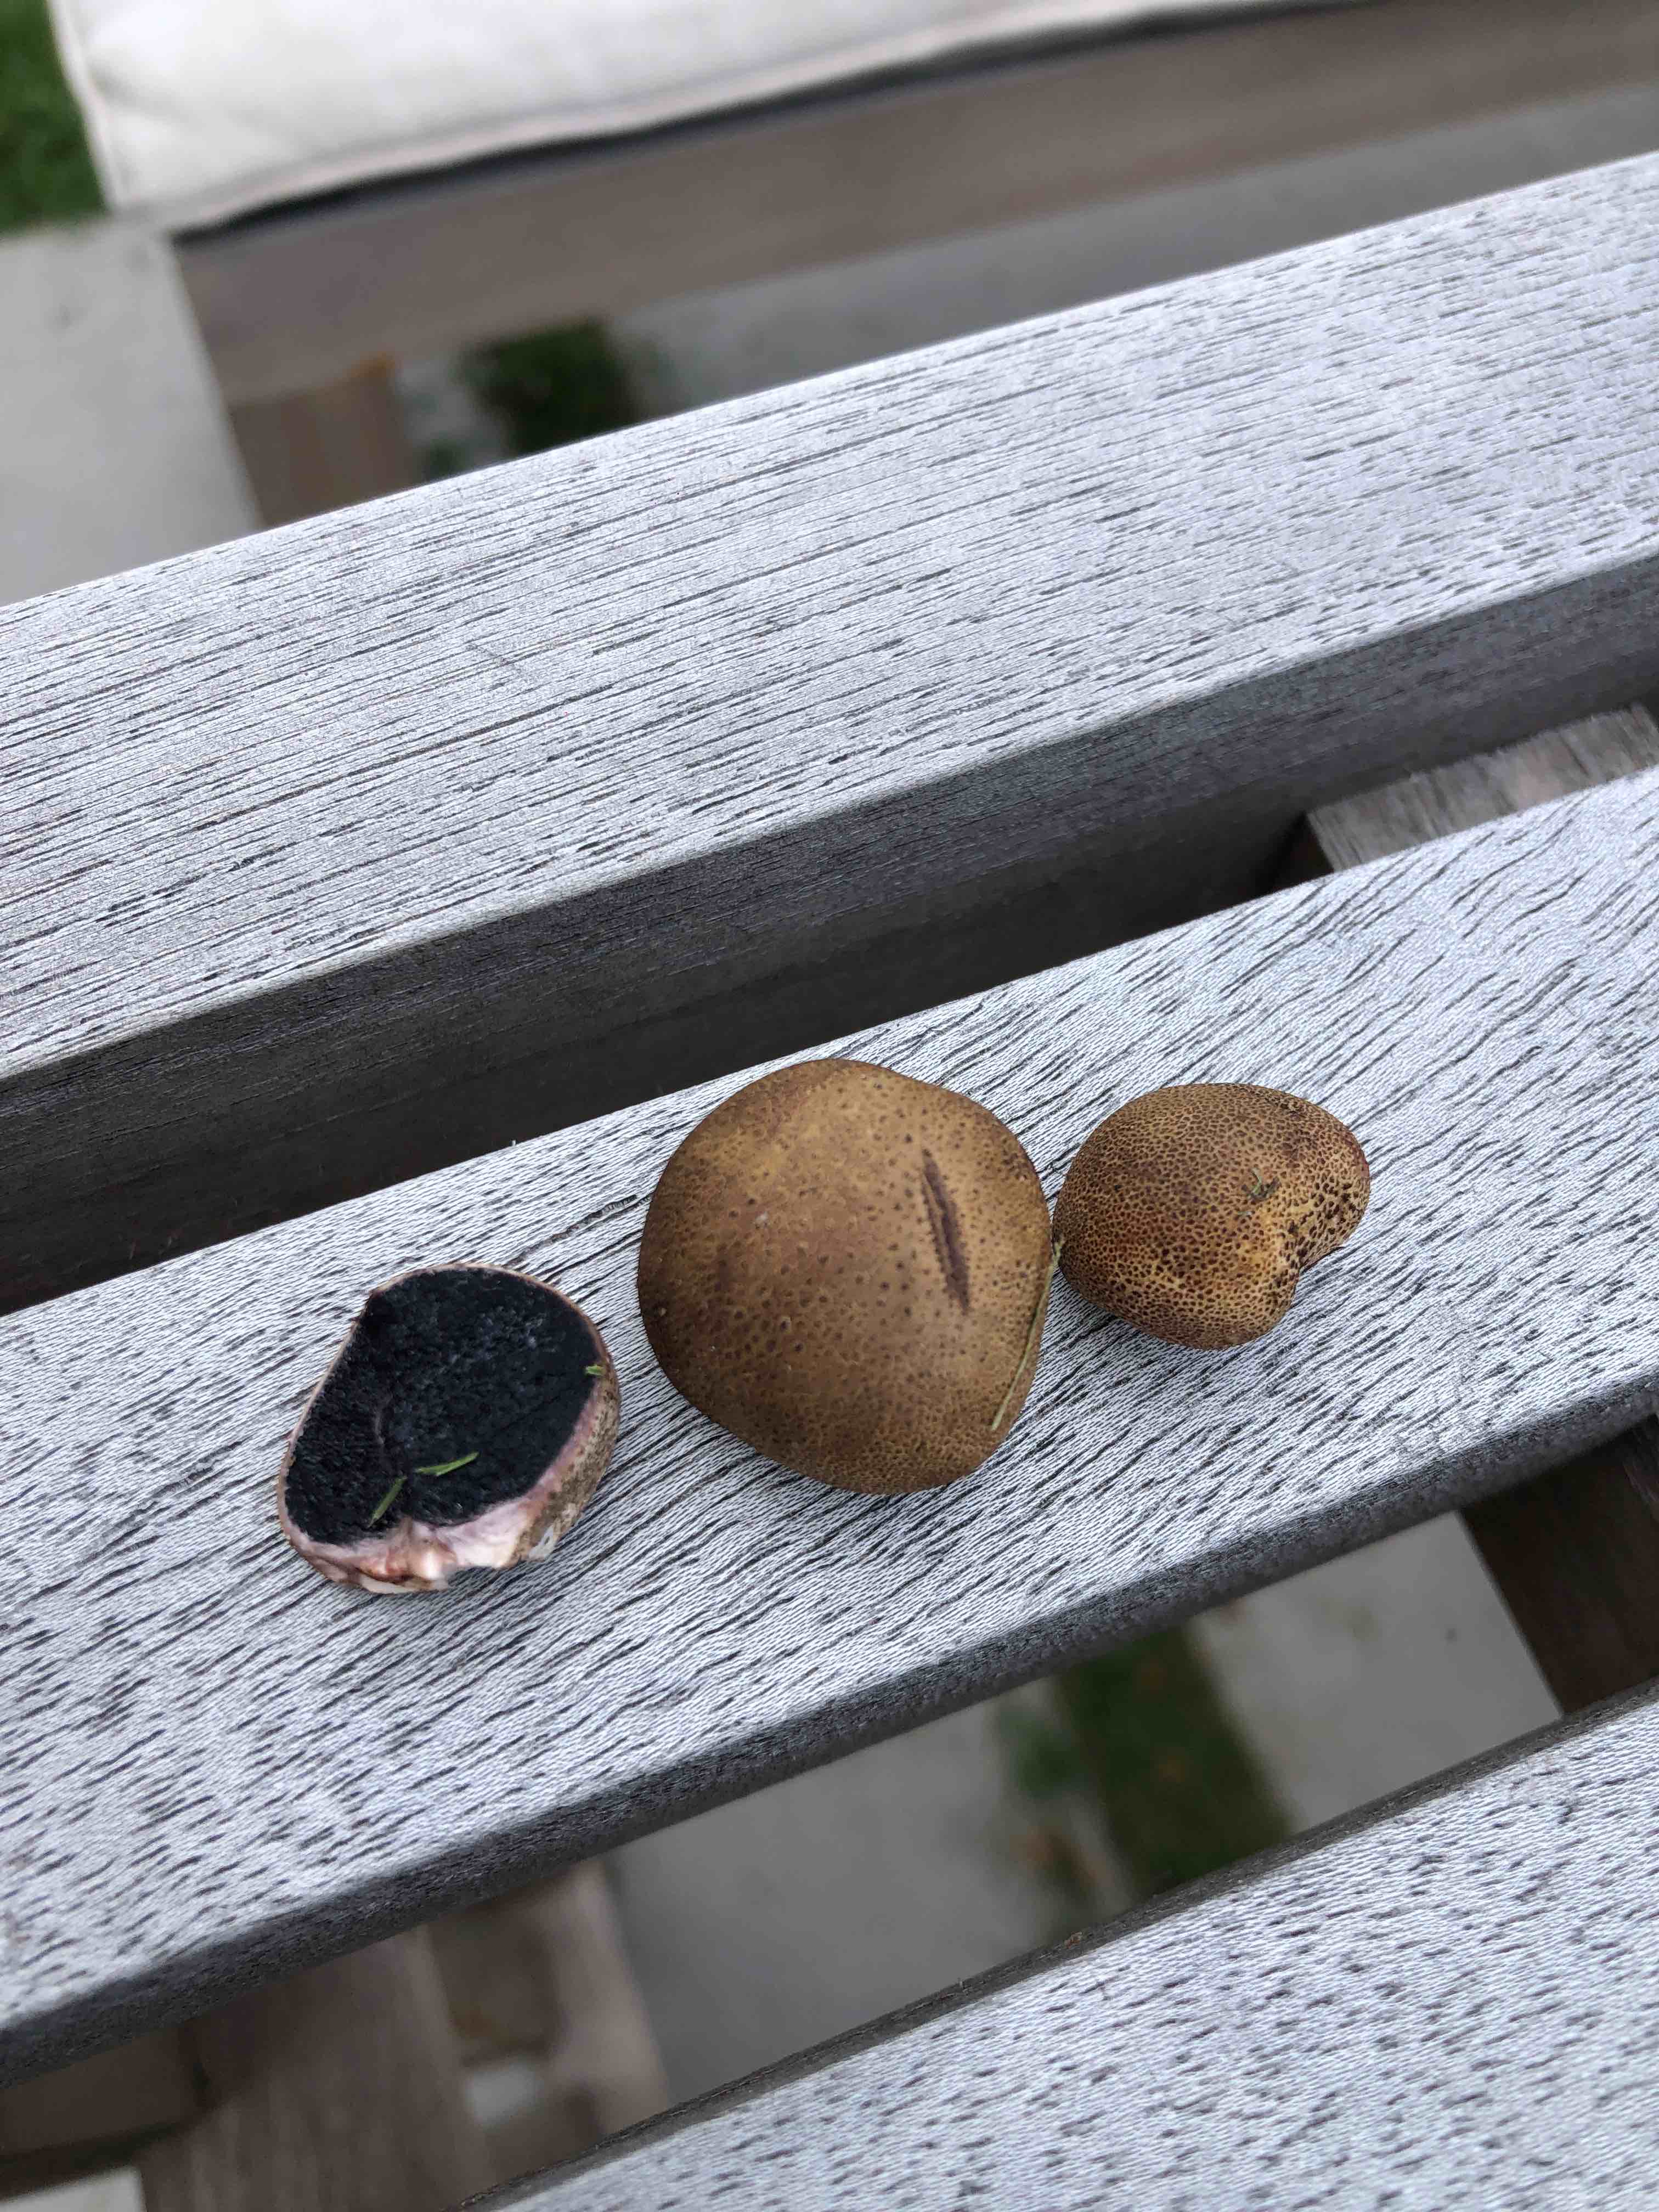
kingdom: Fungi
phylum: Basidiomycota
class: Agaricomycetes
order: Boletales
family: Sclerodermataceae
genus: Scleroderma
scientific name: Scleroderma areolatum
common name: plettet bruskbold
